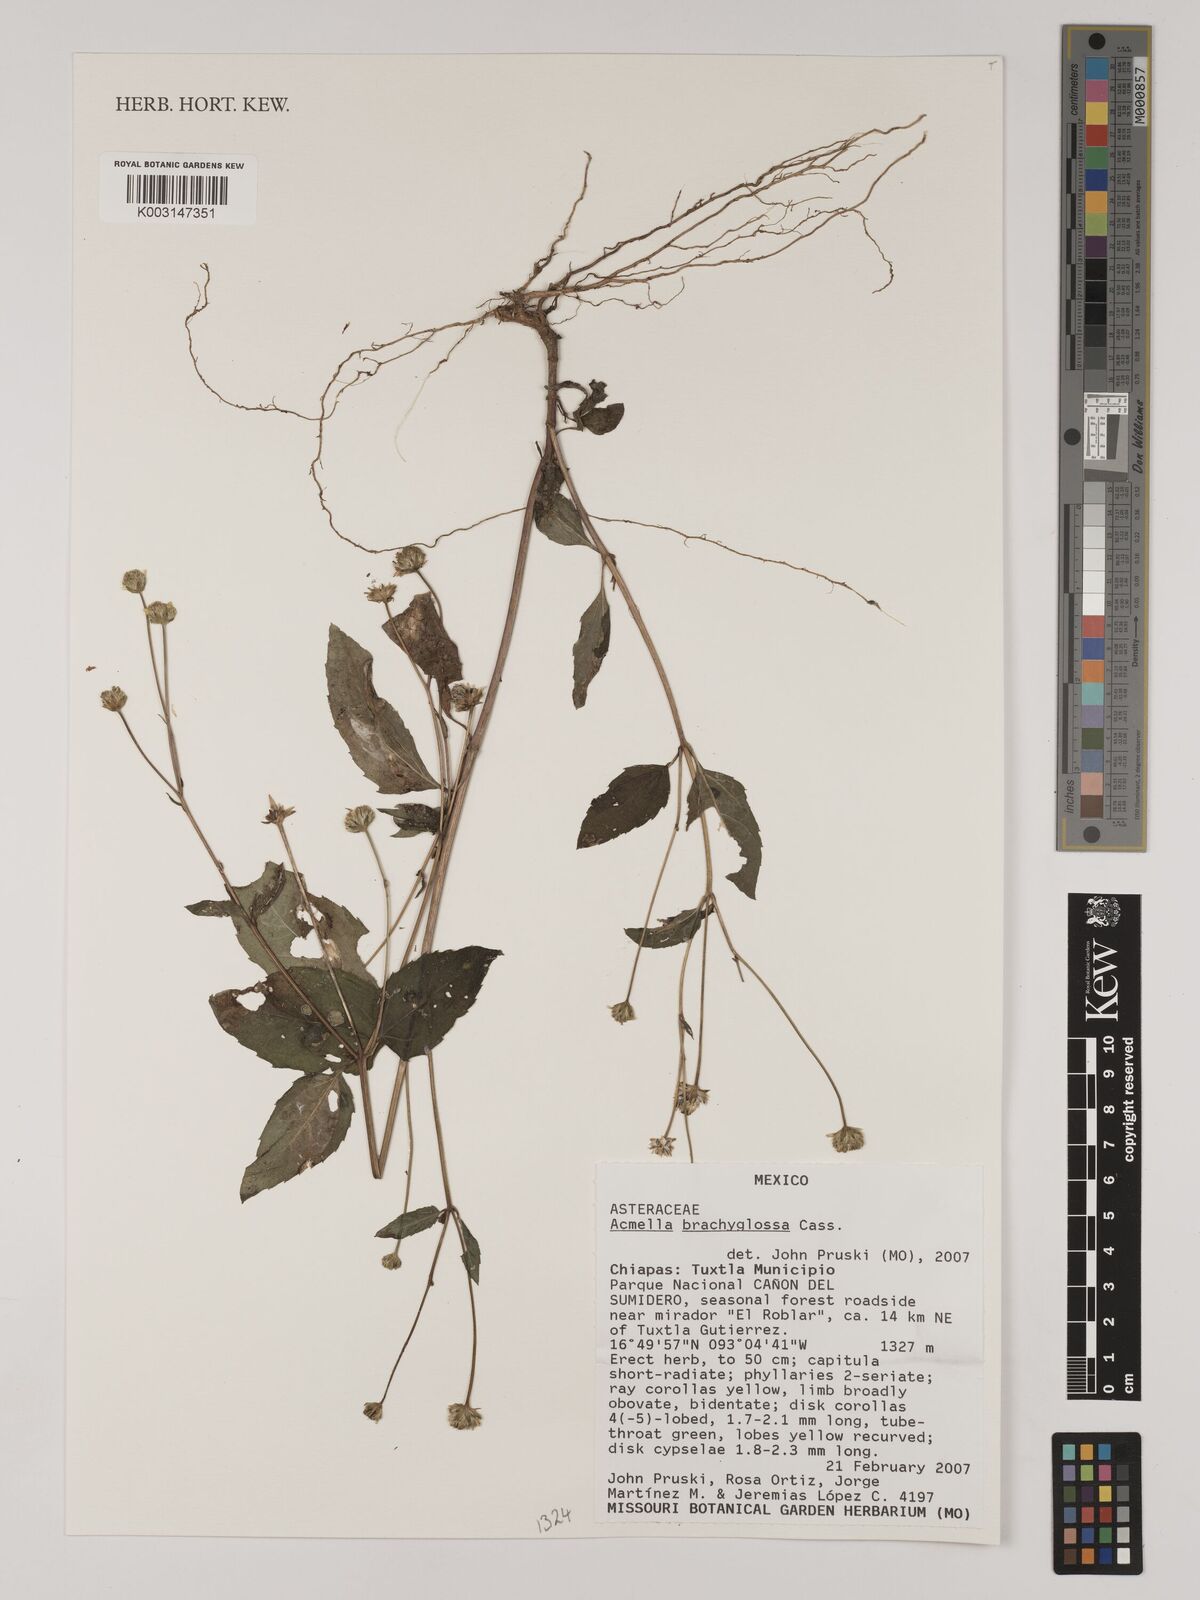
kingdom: Plantae
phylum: Tracheophyta
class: Magnoliopsida
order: Asterales
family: Asteraceae
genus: Acmella
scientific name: Acmella brachyglossa
